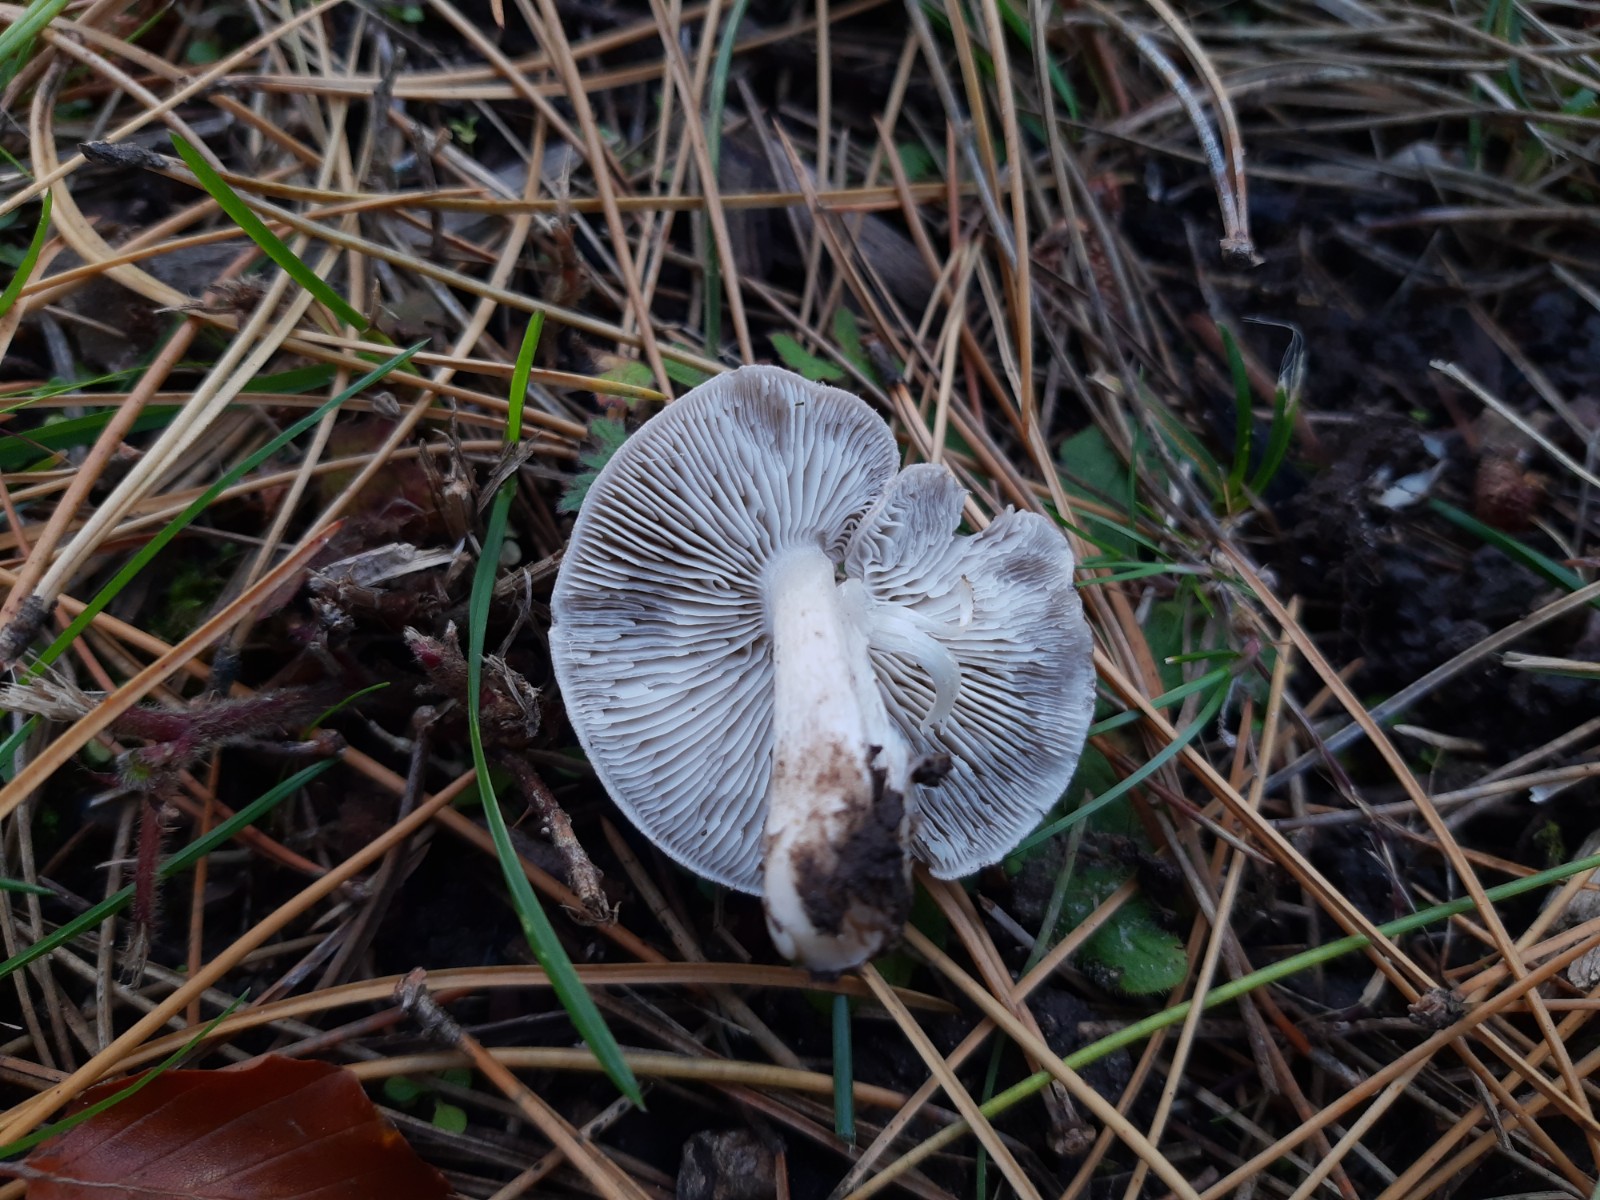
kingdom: Fungi
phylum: Basidiomycota
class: Agaricomycetes
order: Agaricales
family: Tricholomataceae
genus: Tricholoma
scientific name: Tricholoma terreum
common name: jordfarvet ridderhat
